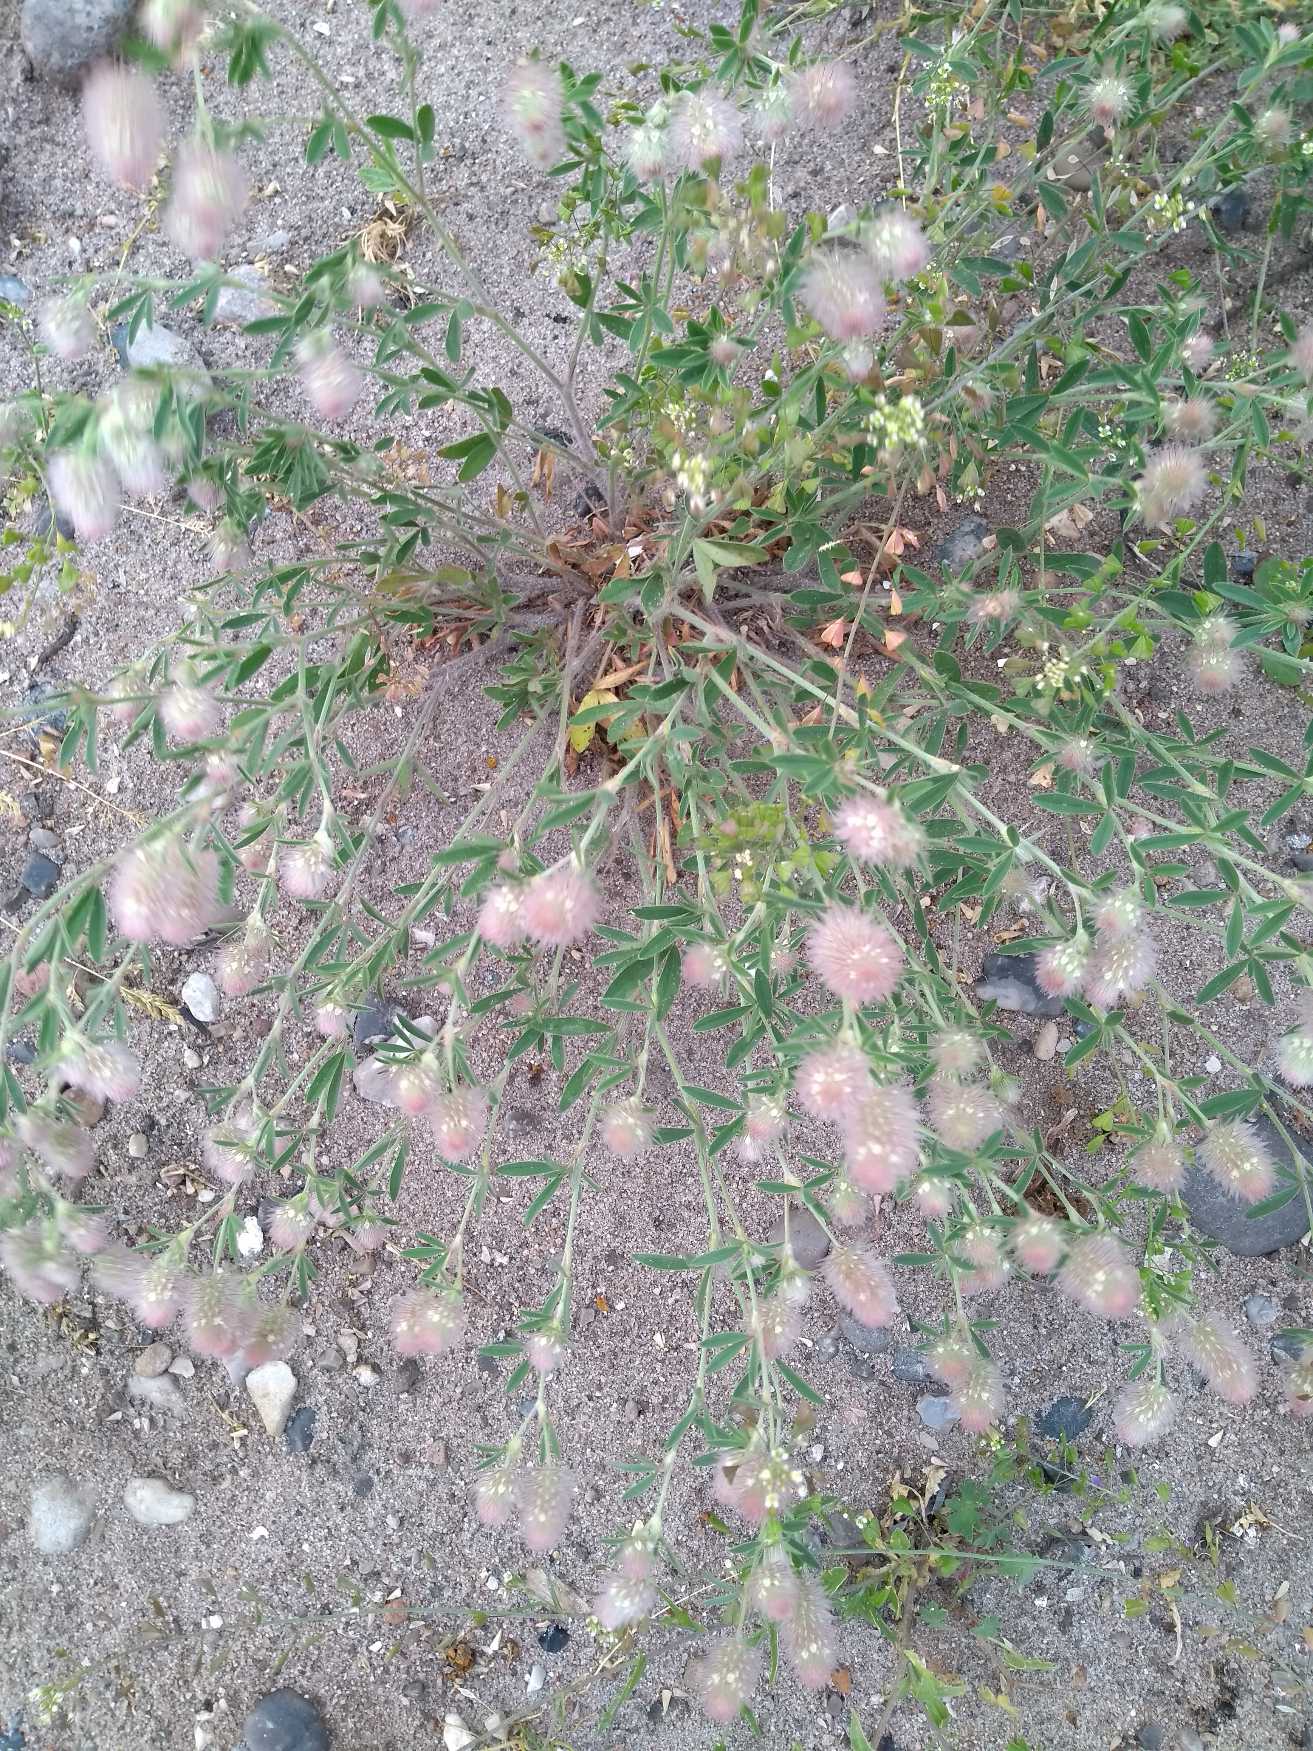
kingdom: Plantae
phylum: Tracheophyta
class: Magnoliopsida
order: Fabales
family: Fabaceae
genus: Trifolium
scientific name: Trifolium arvense
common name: Hare-kløver
